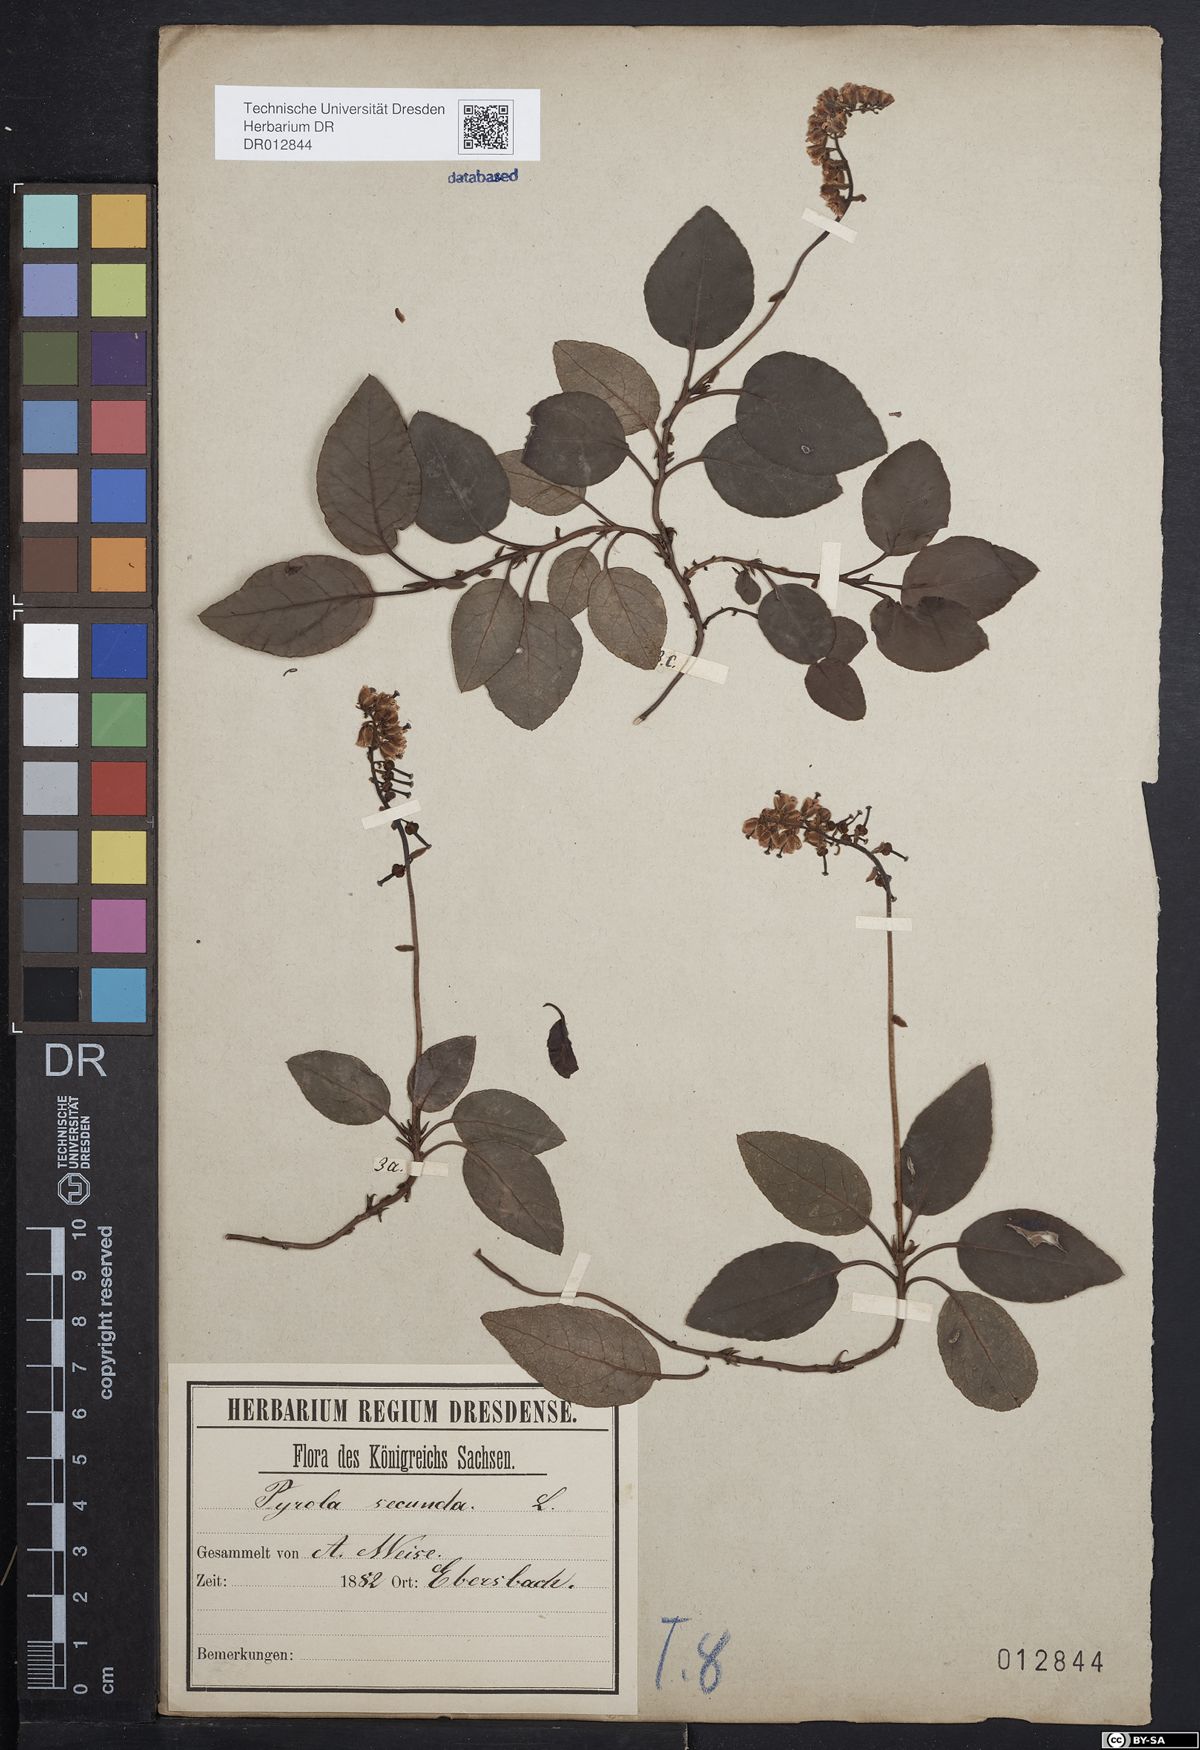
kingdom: Plantae
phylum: Tracheophyta
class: Magnoliopsida
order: Ericales
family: Ericaceae
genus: Orthilia
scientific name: Orthilia secunda
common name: One-sided orthilia
